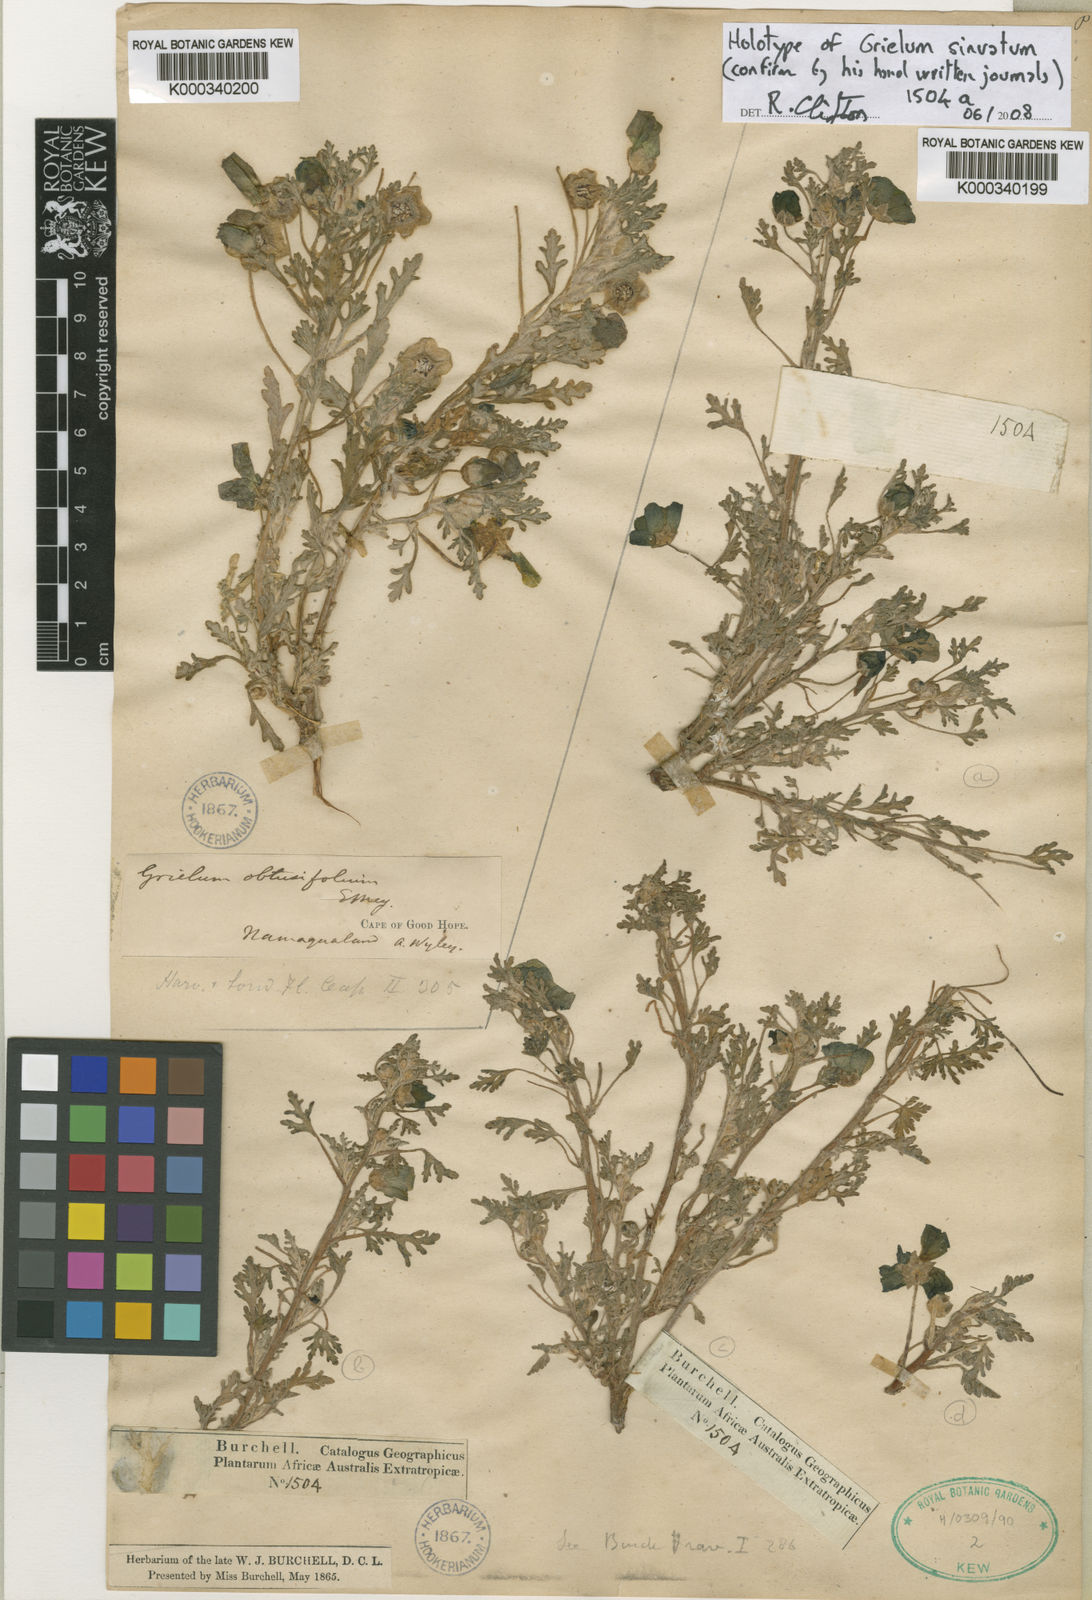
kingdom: Plantae
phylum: Tracheophyta
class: Magnoliopsida
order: Malvales
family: Neuradaceae
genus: Grielum
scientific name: Grielum
